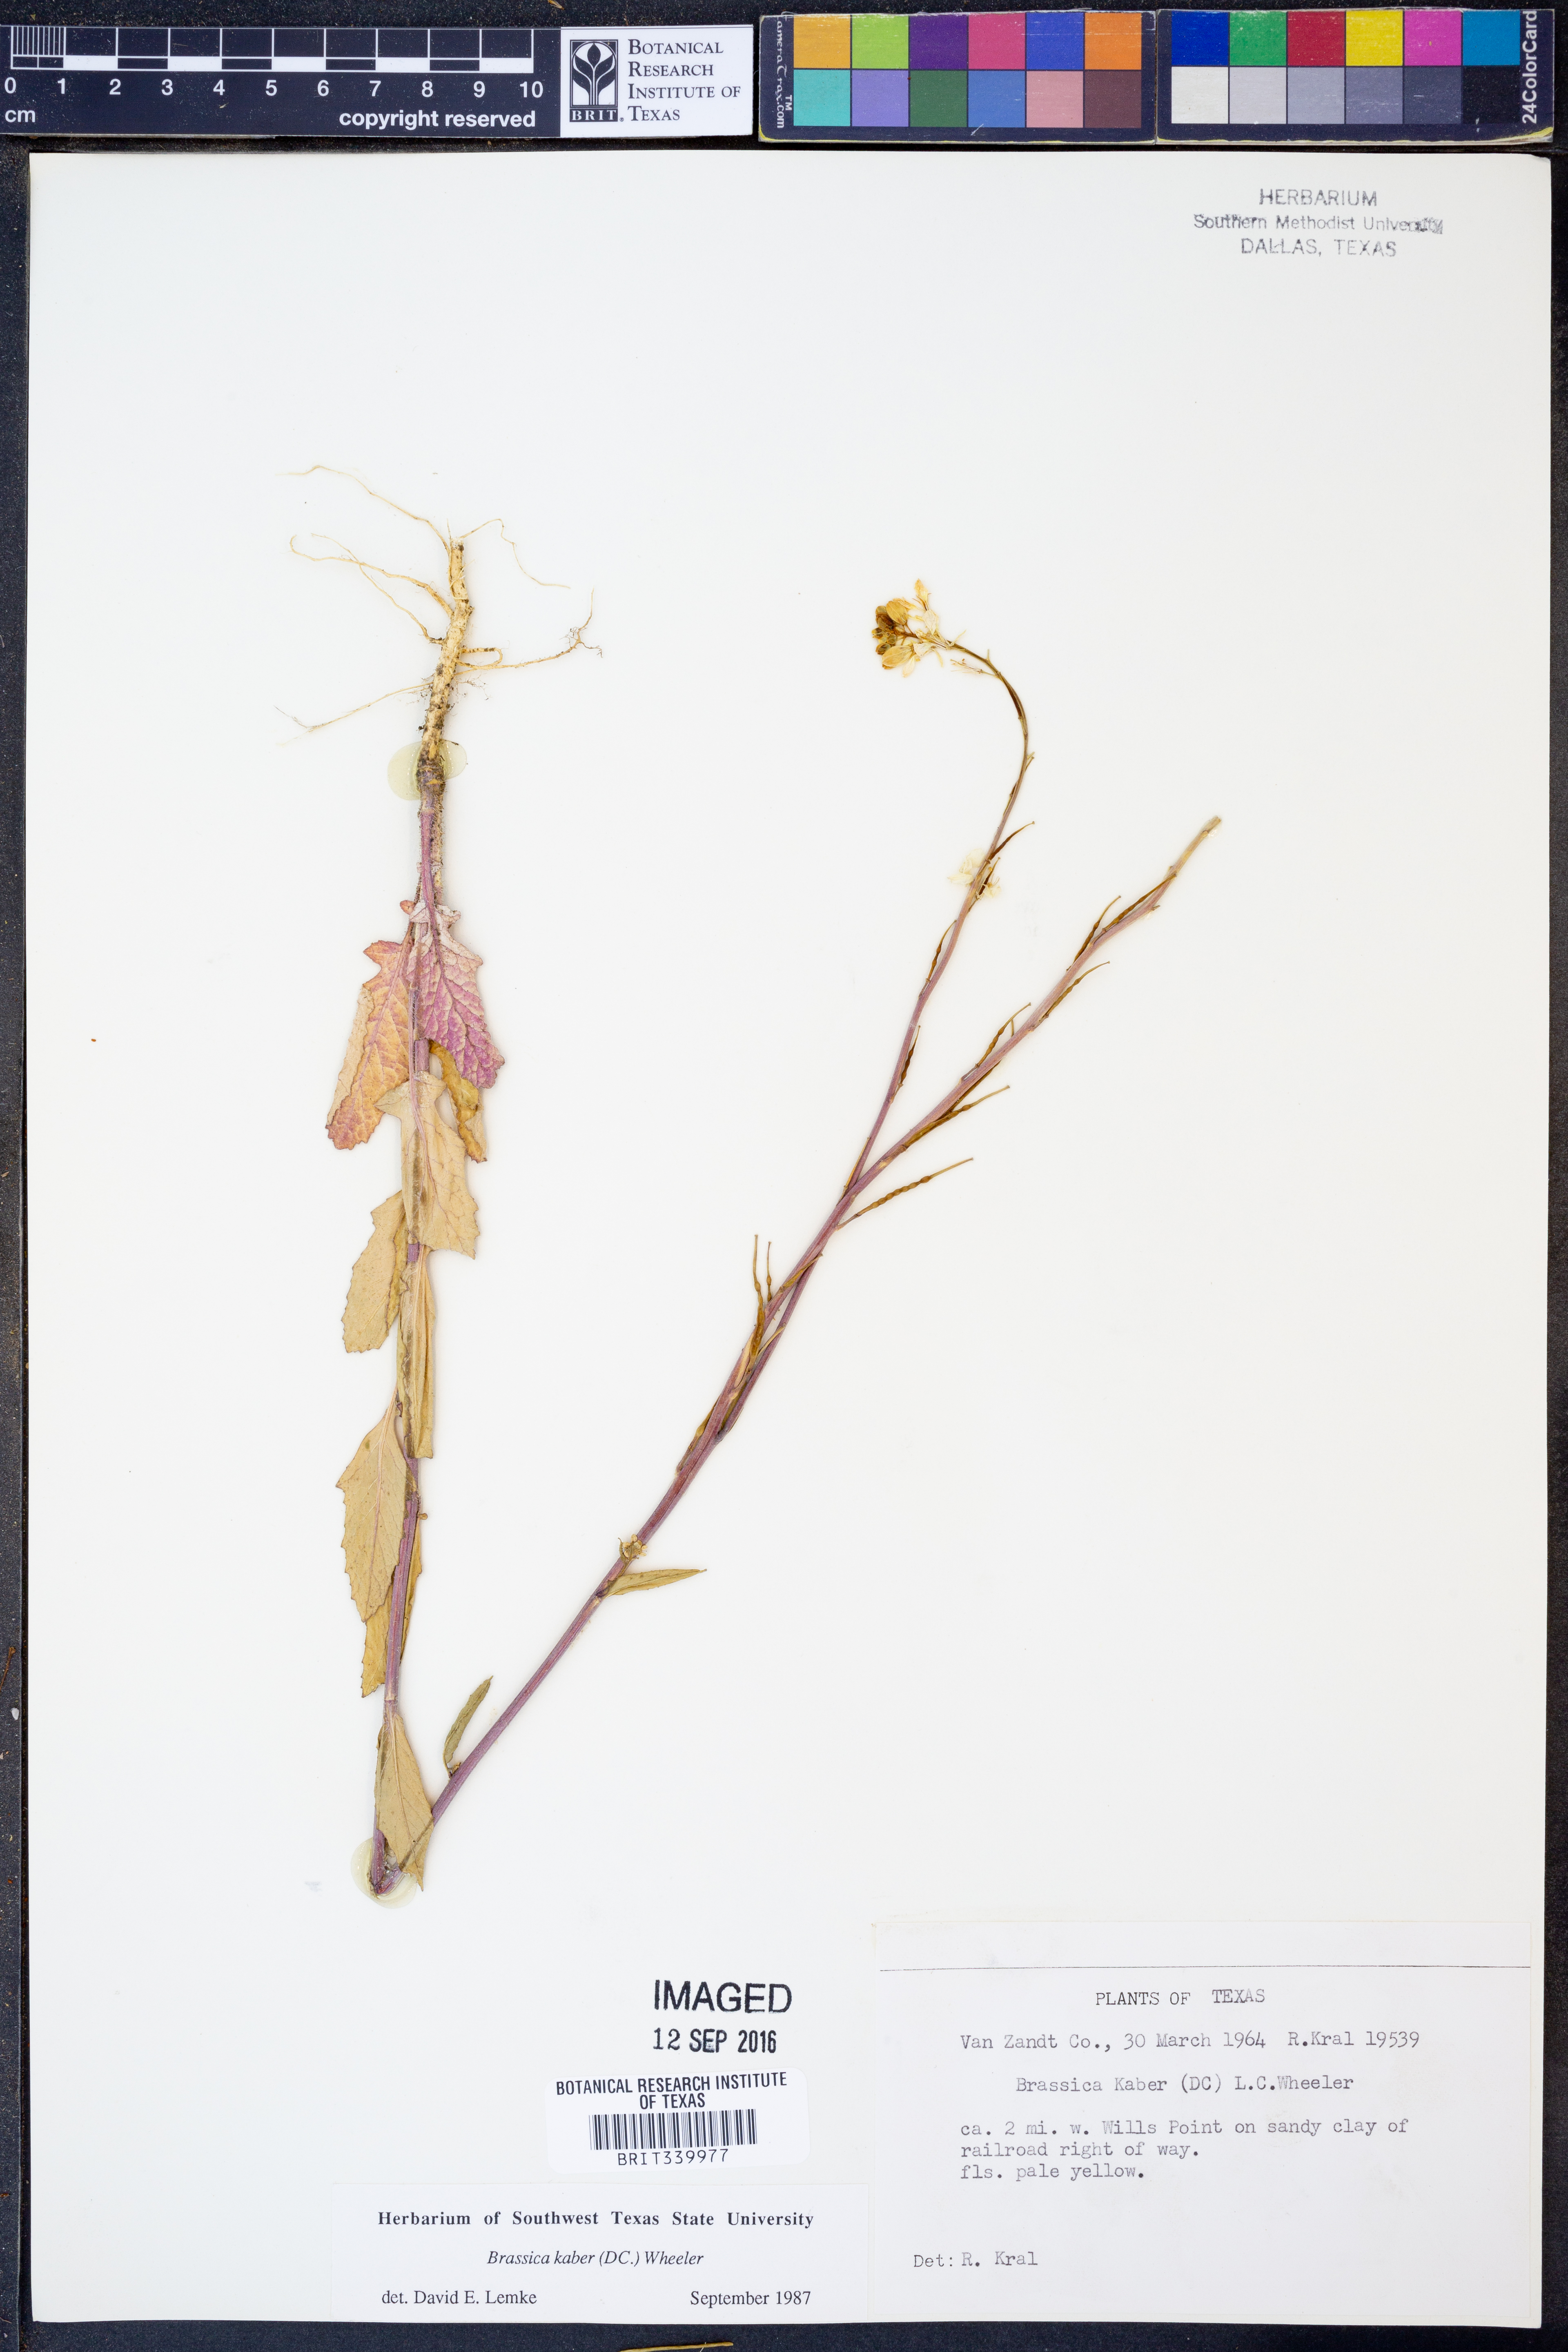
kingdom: Plantae
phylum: Tracheophyta
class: Magnoliopsida
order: Brassicales
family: Brassicaceae
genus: Sinapis
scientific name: Sinapis arvensis
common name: Charlock
